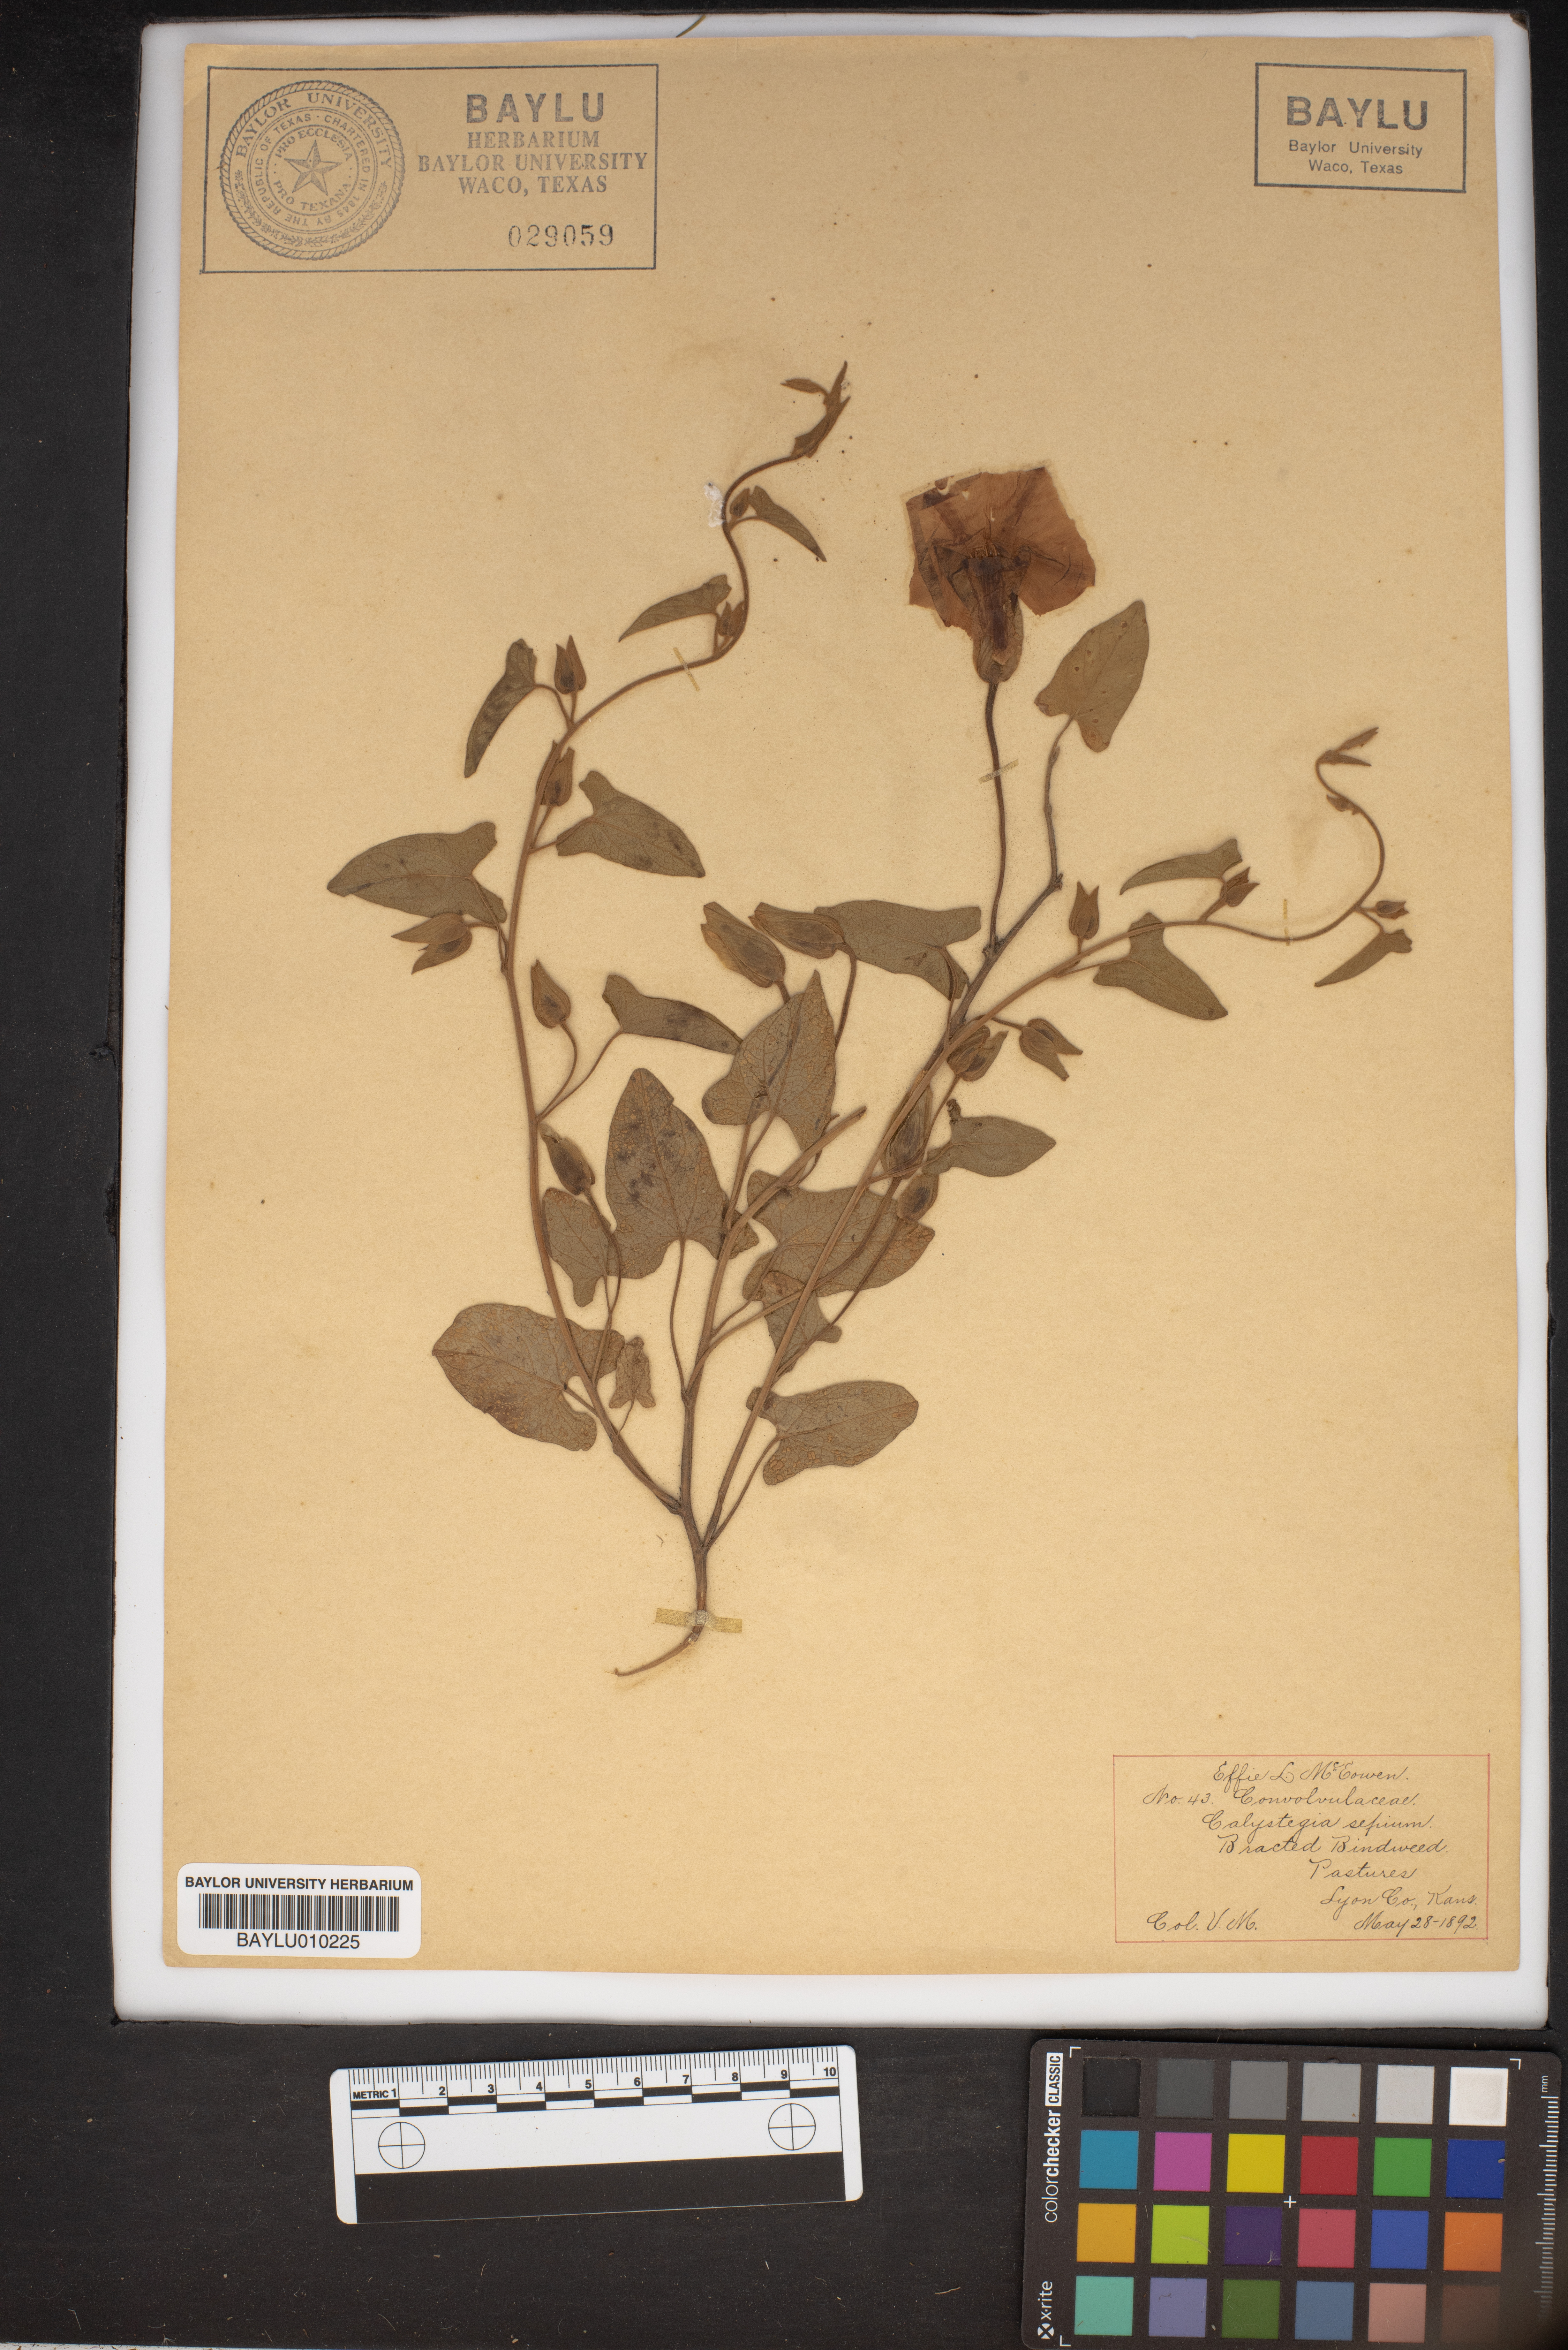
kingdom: Plantae
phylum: Tracheophyta
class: Magnoliopsida
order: Solanales
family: Convolvulaceae
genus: Calystegia
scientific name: Calystegia sepium
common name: Hedge bindweed
